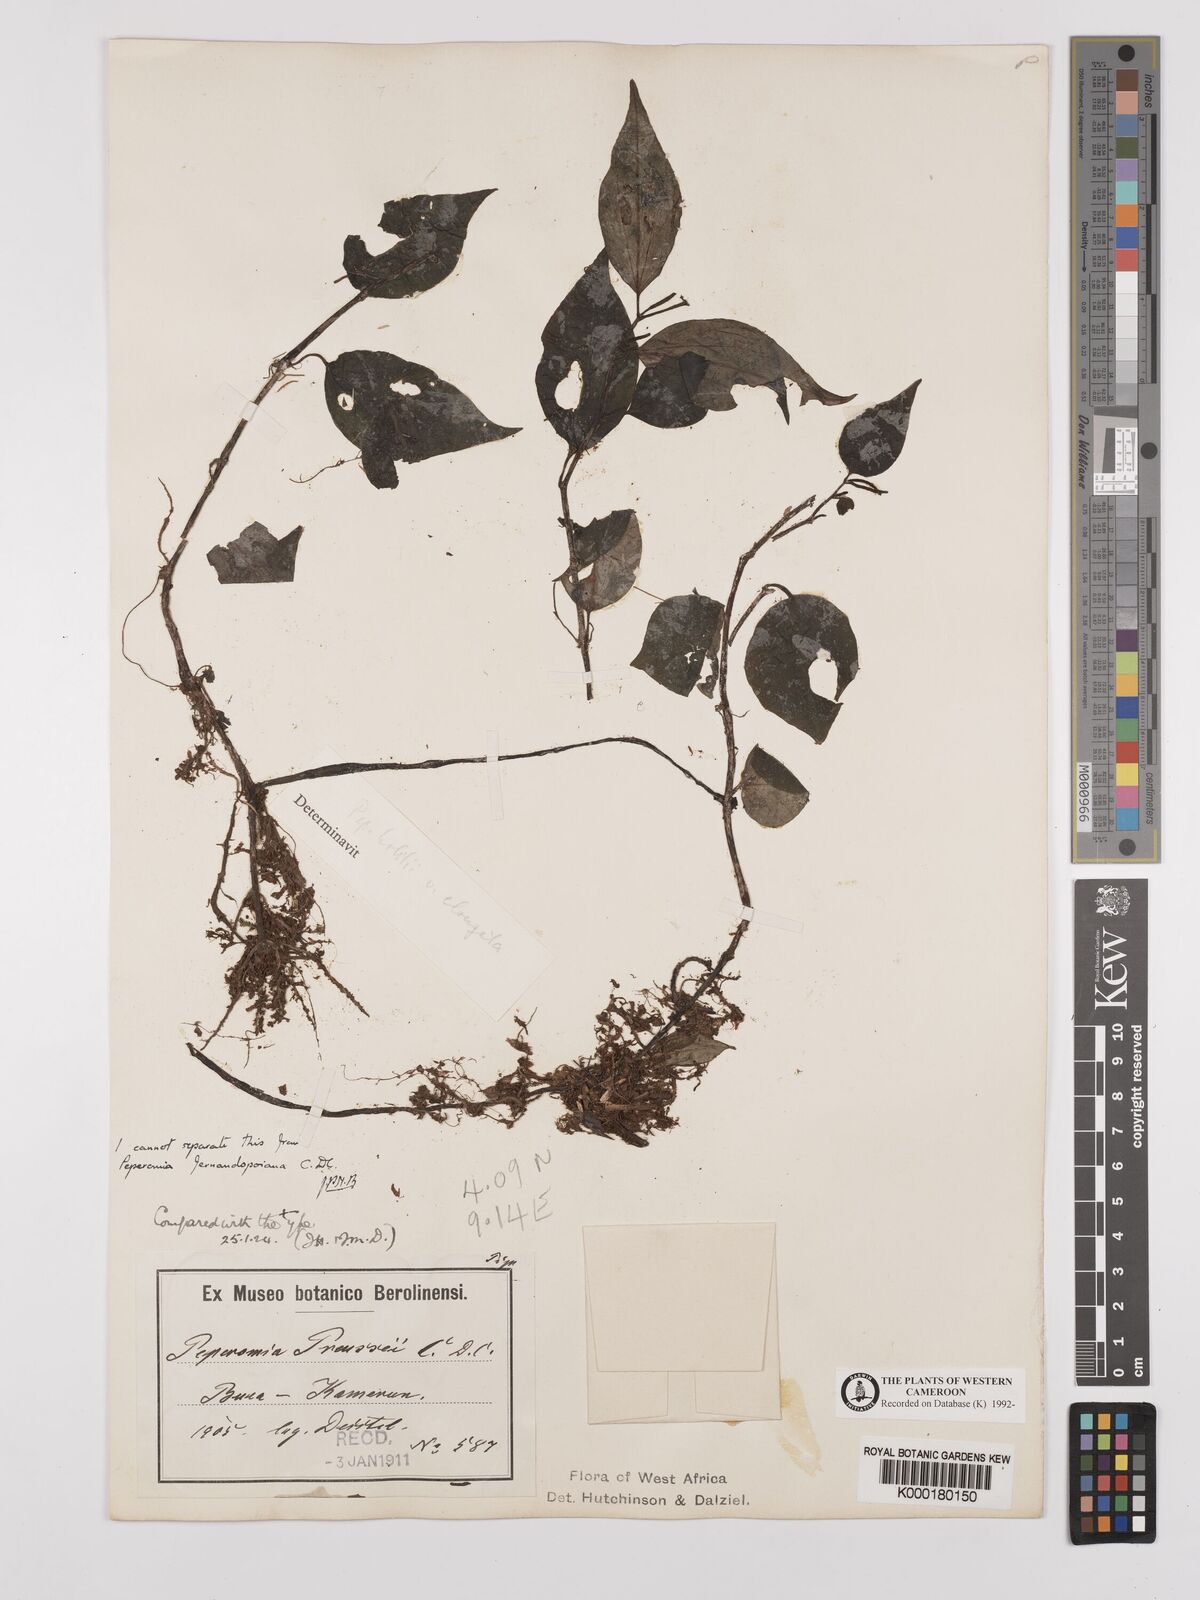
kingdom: Plantae
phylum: Tracheophyta
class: Magnoliopsida
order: Piperales
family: Piperaceae
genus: Peperomia
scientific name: Peperomia fernandopoiana
